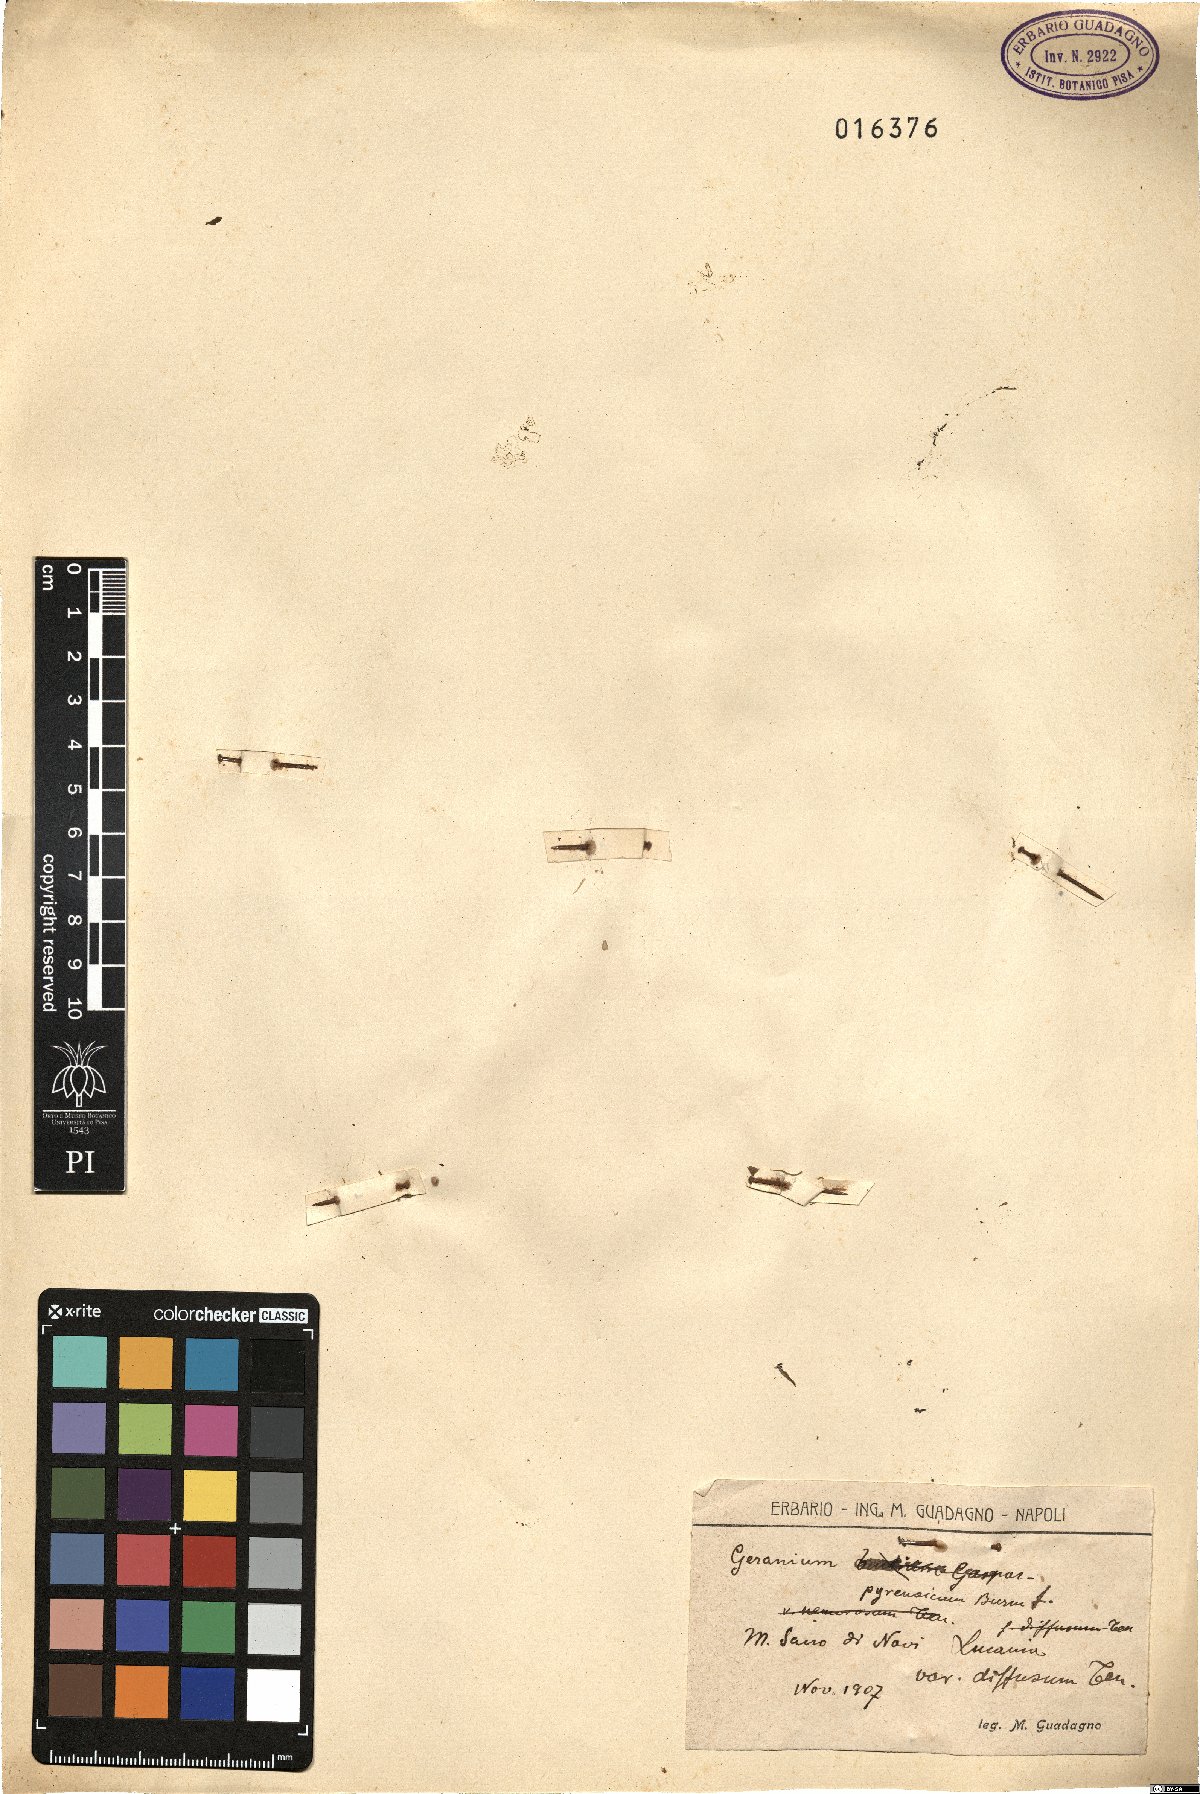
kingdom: Plantae
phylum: Tracheophyta
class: Magnoliopsida
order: Geraniales
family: Geraniaceae
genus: Geranium
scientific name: Geranium pyrenaicum
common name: Hedgerow crane's-bill
